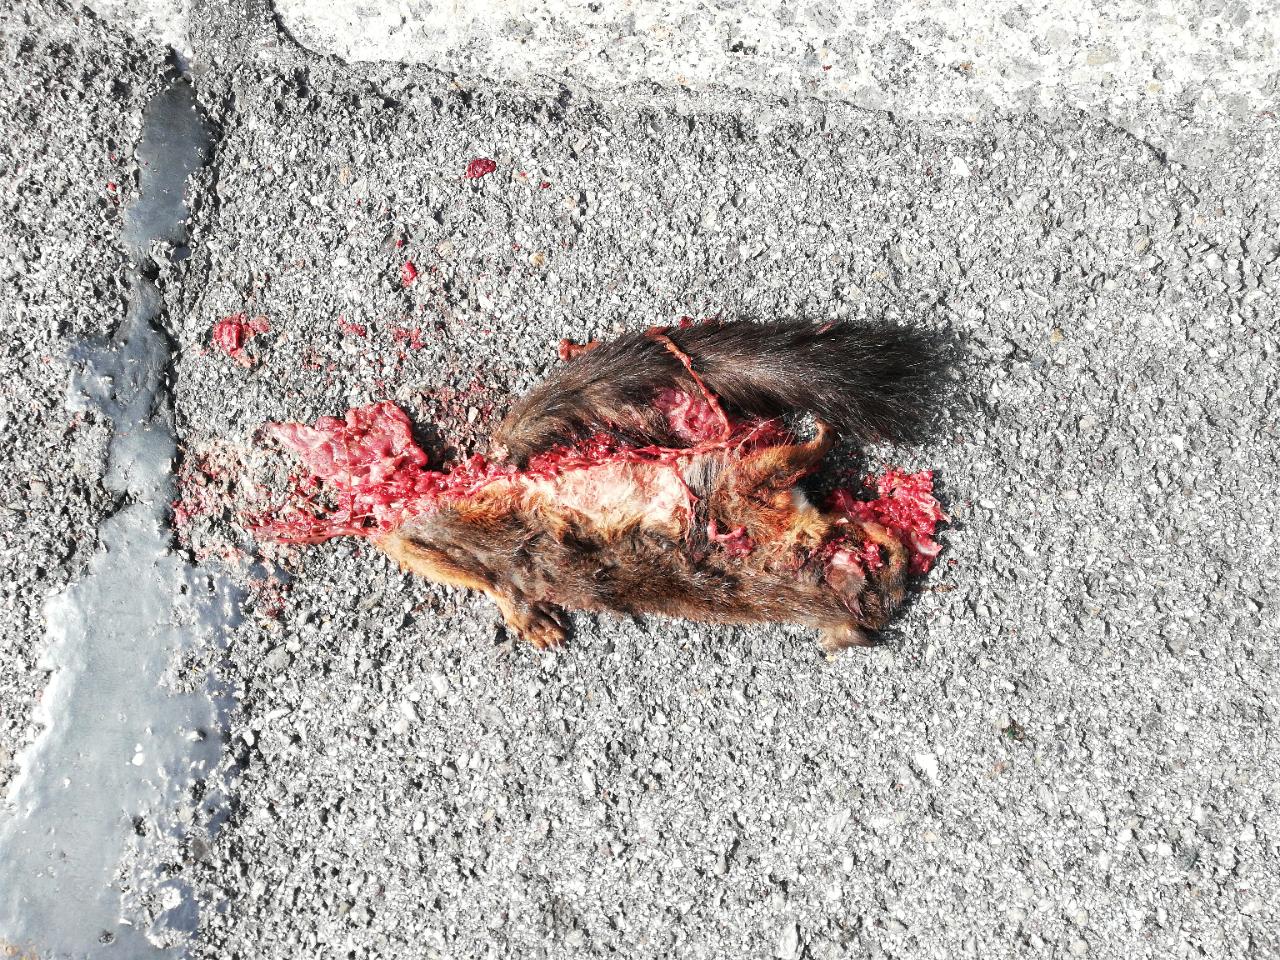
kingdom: Animalia
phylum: Chordata
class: Mammalia
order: Rodentia
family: Sciuridae
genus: Sciurus
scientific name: Sciurus vulgaris
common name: Eurasian red squirrel
